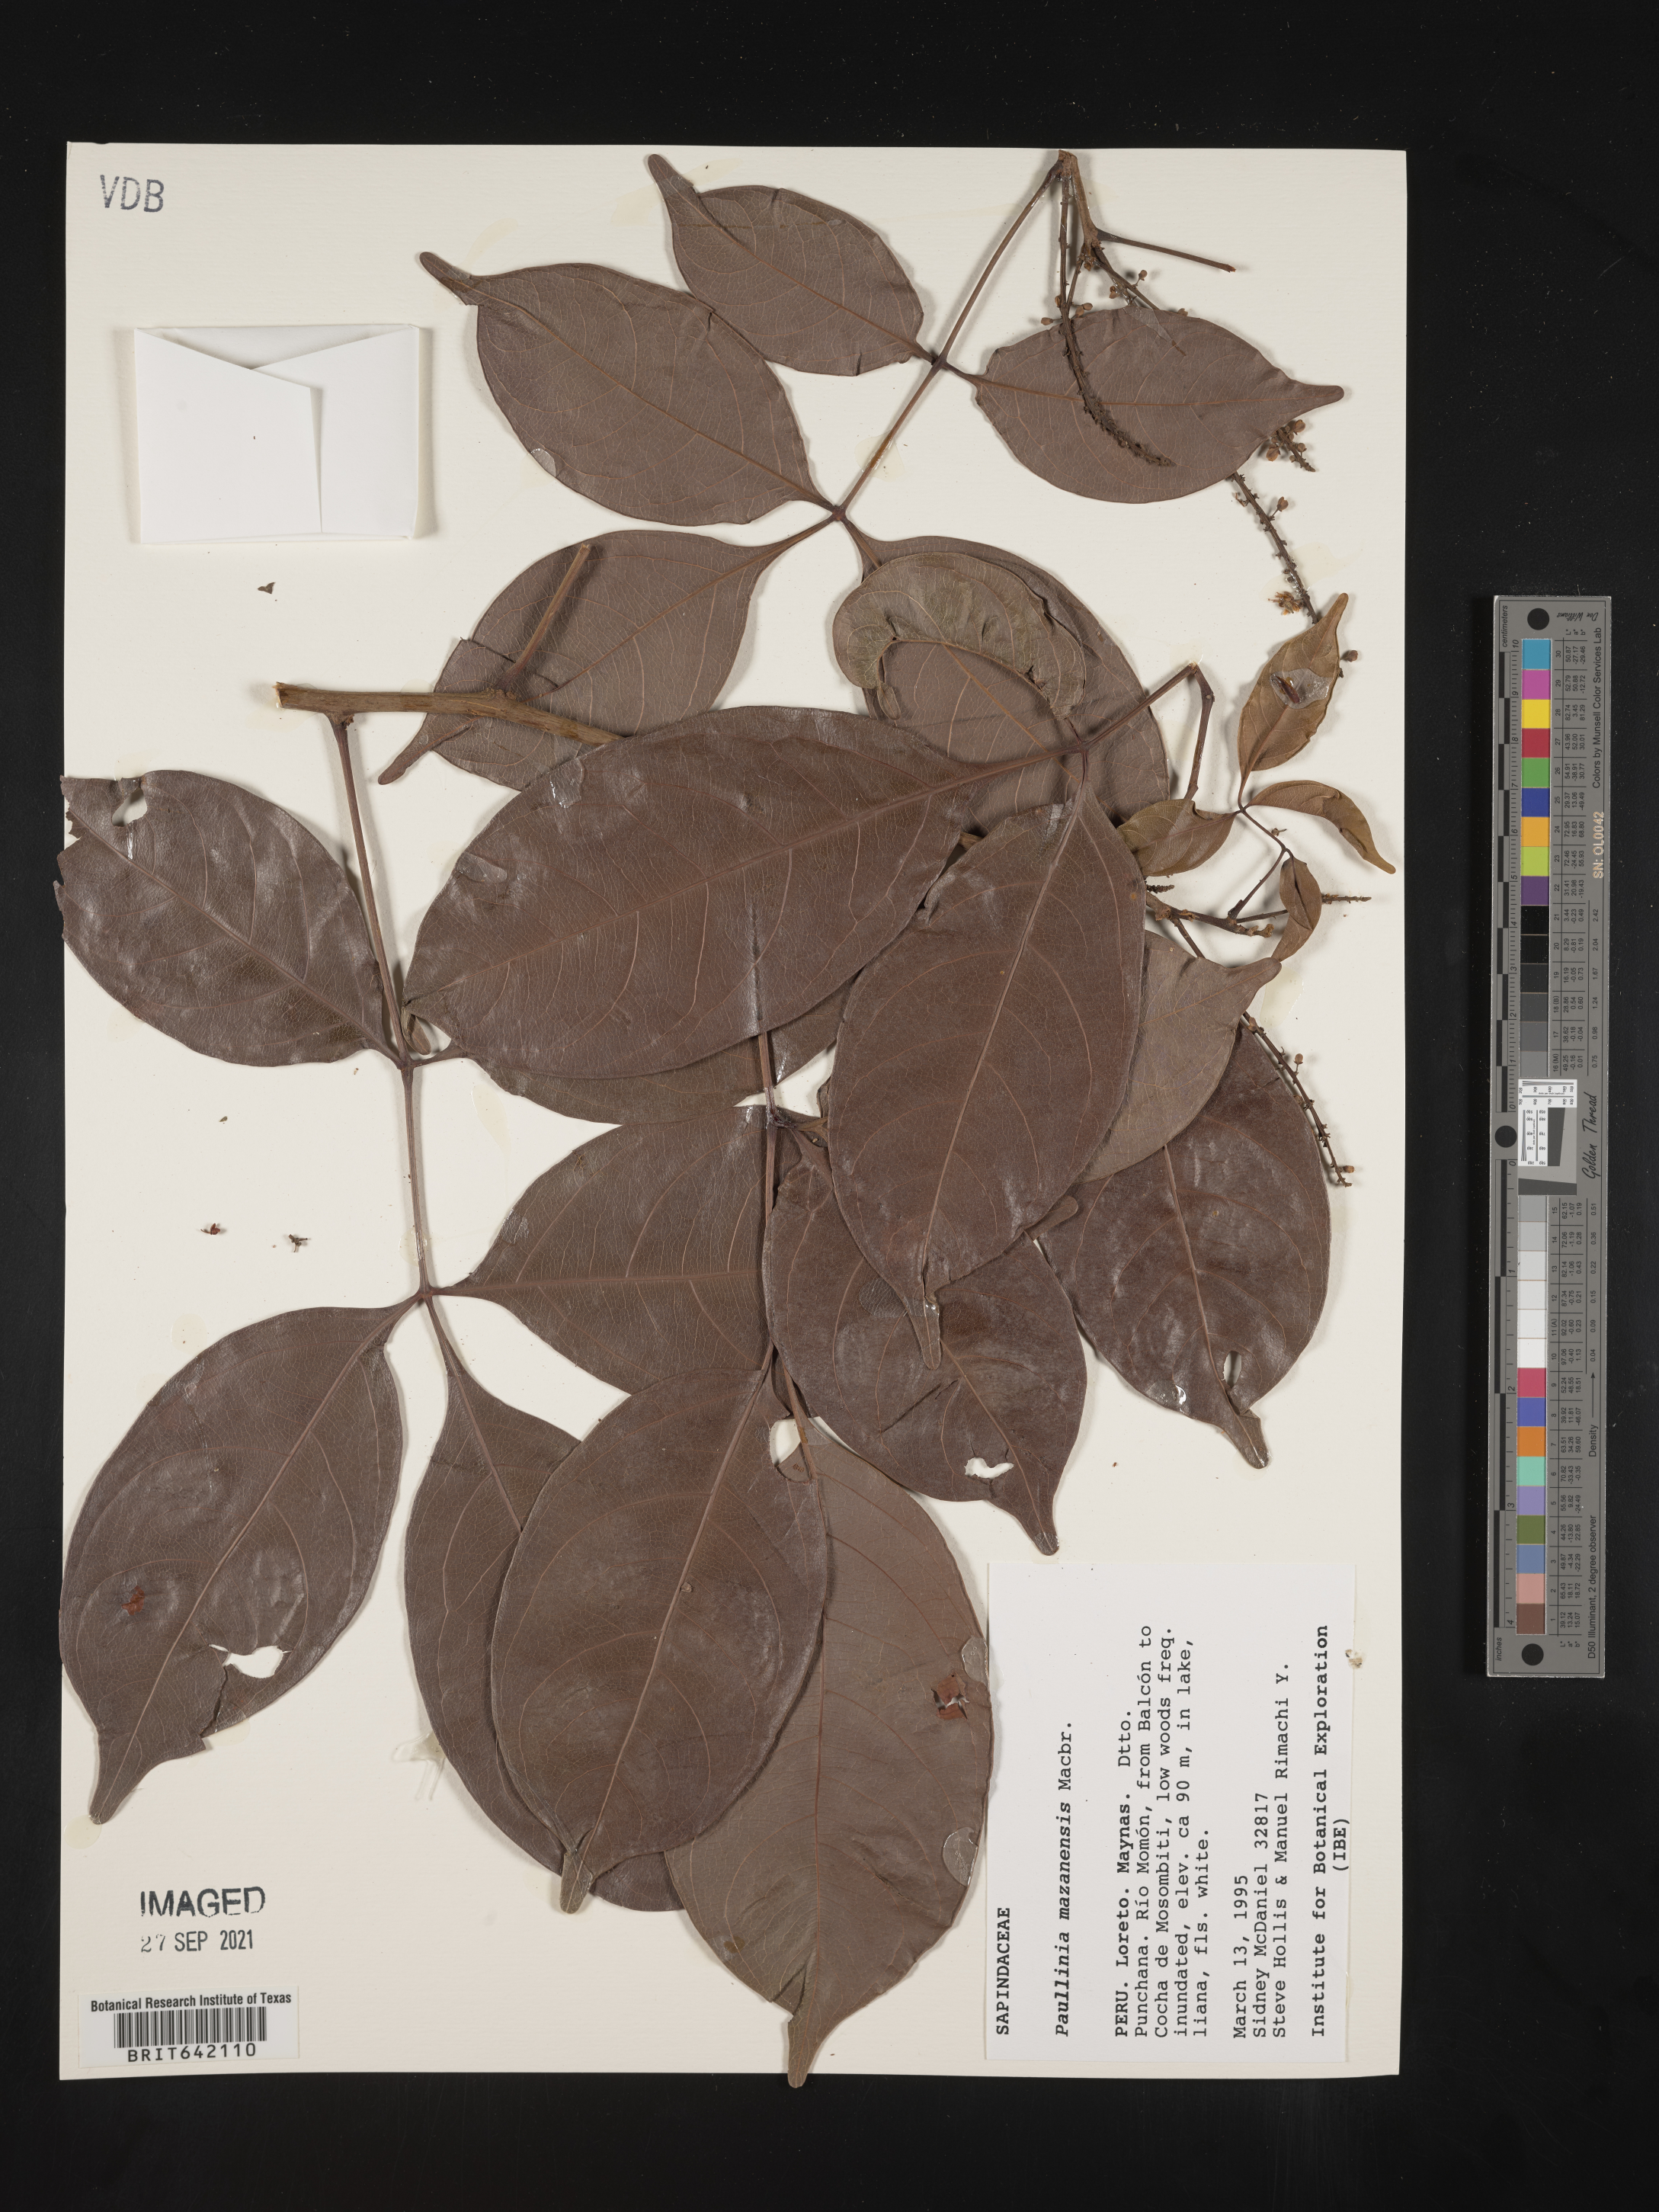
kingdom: Plantae
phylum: Tracheophyta
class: Magnoliopsida
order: Sapindales
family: Sapindaceae
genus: Paullinia
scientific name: Paullinia
